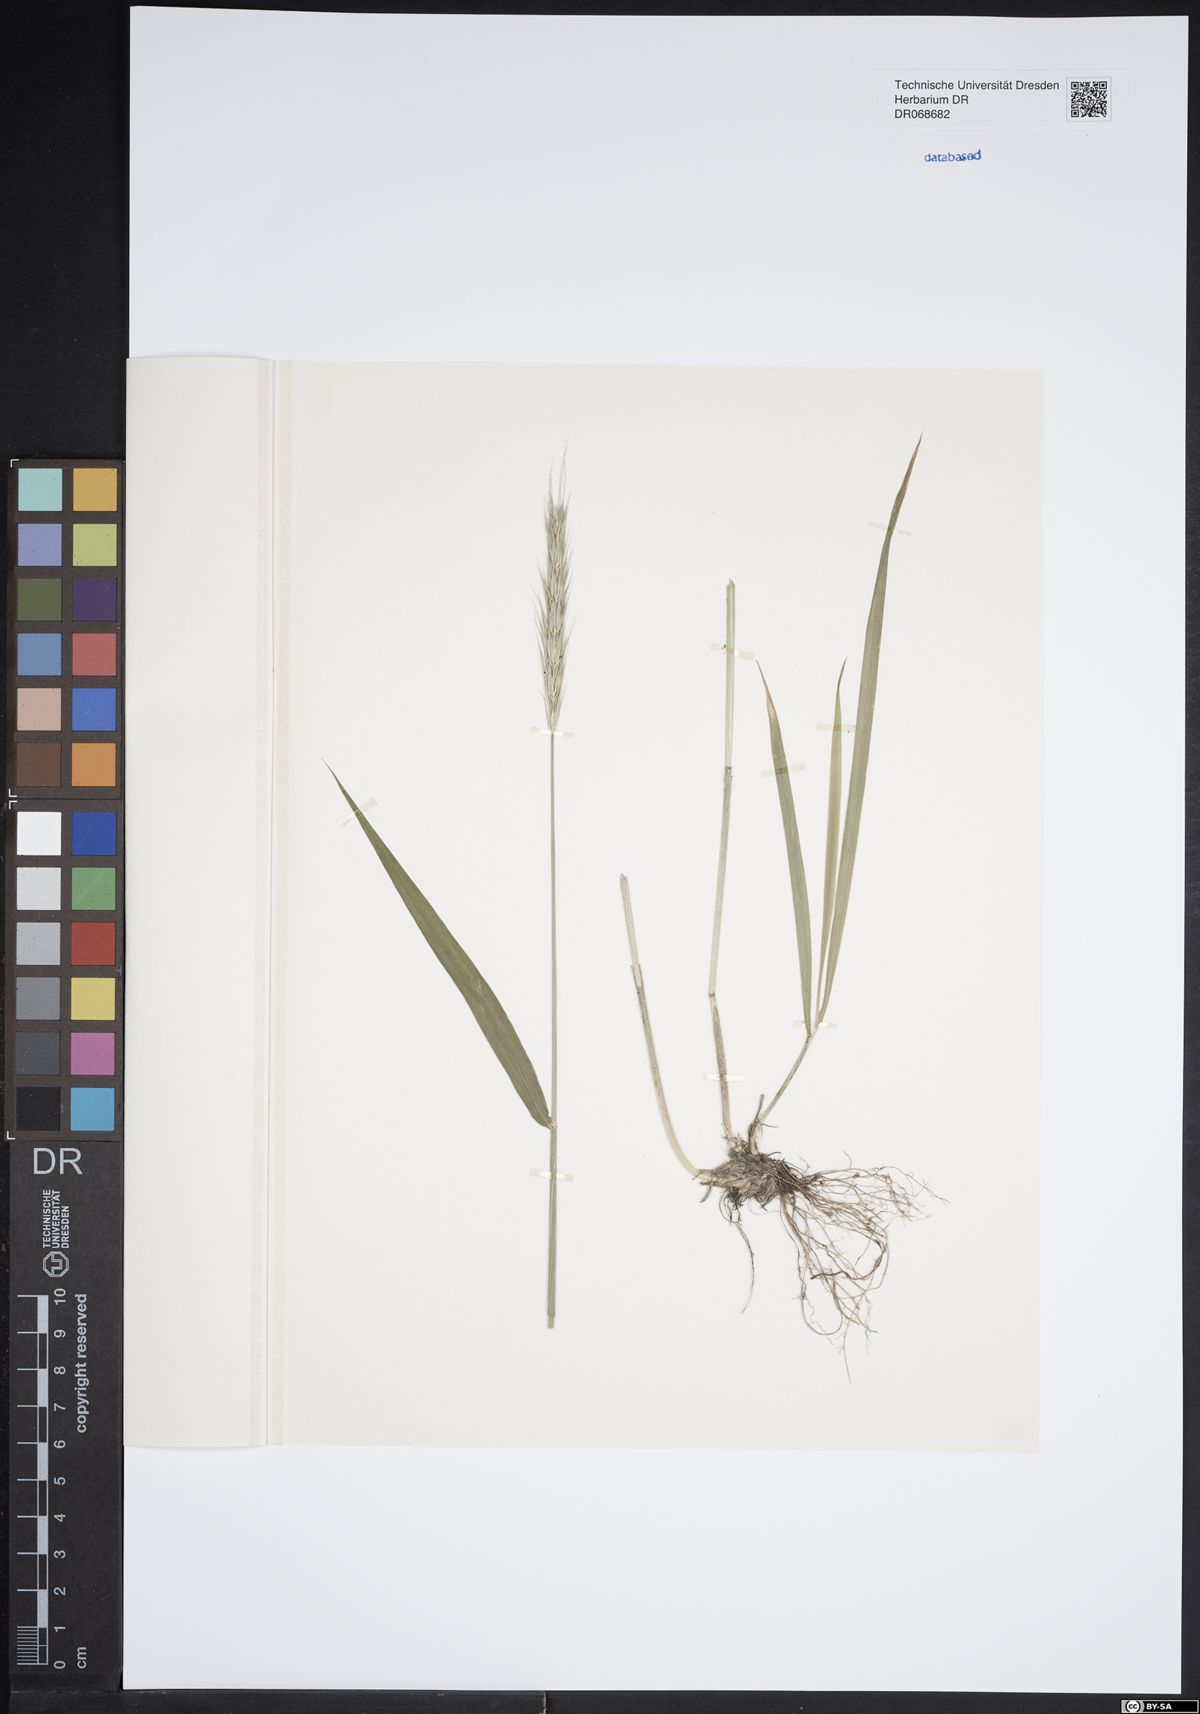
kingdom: Plantae
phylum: Tracheophyta
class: Liliopsida
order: Poales
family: Poaceae
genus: Hordelymus
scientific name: Hordelymus europaeus
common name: Wood-barley
